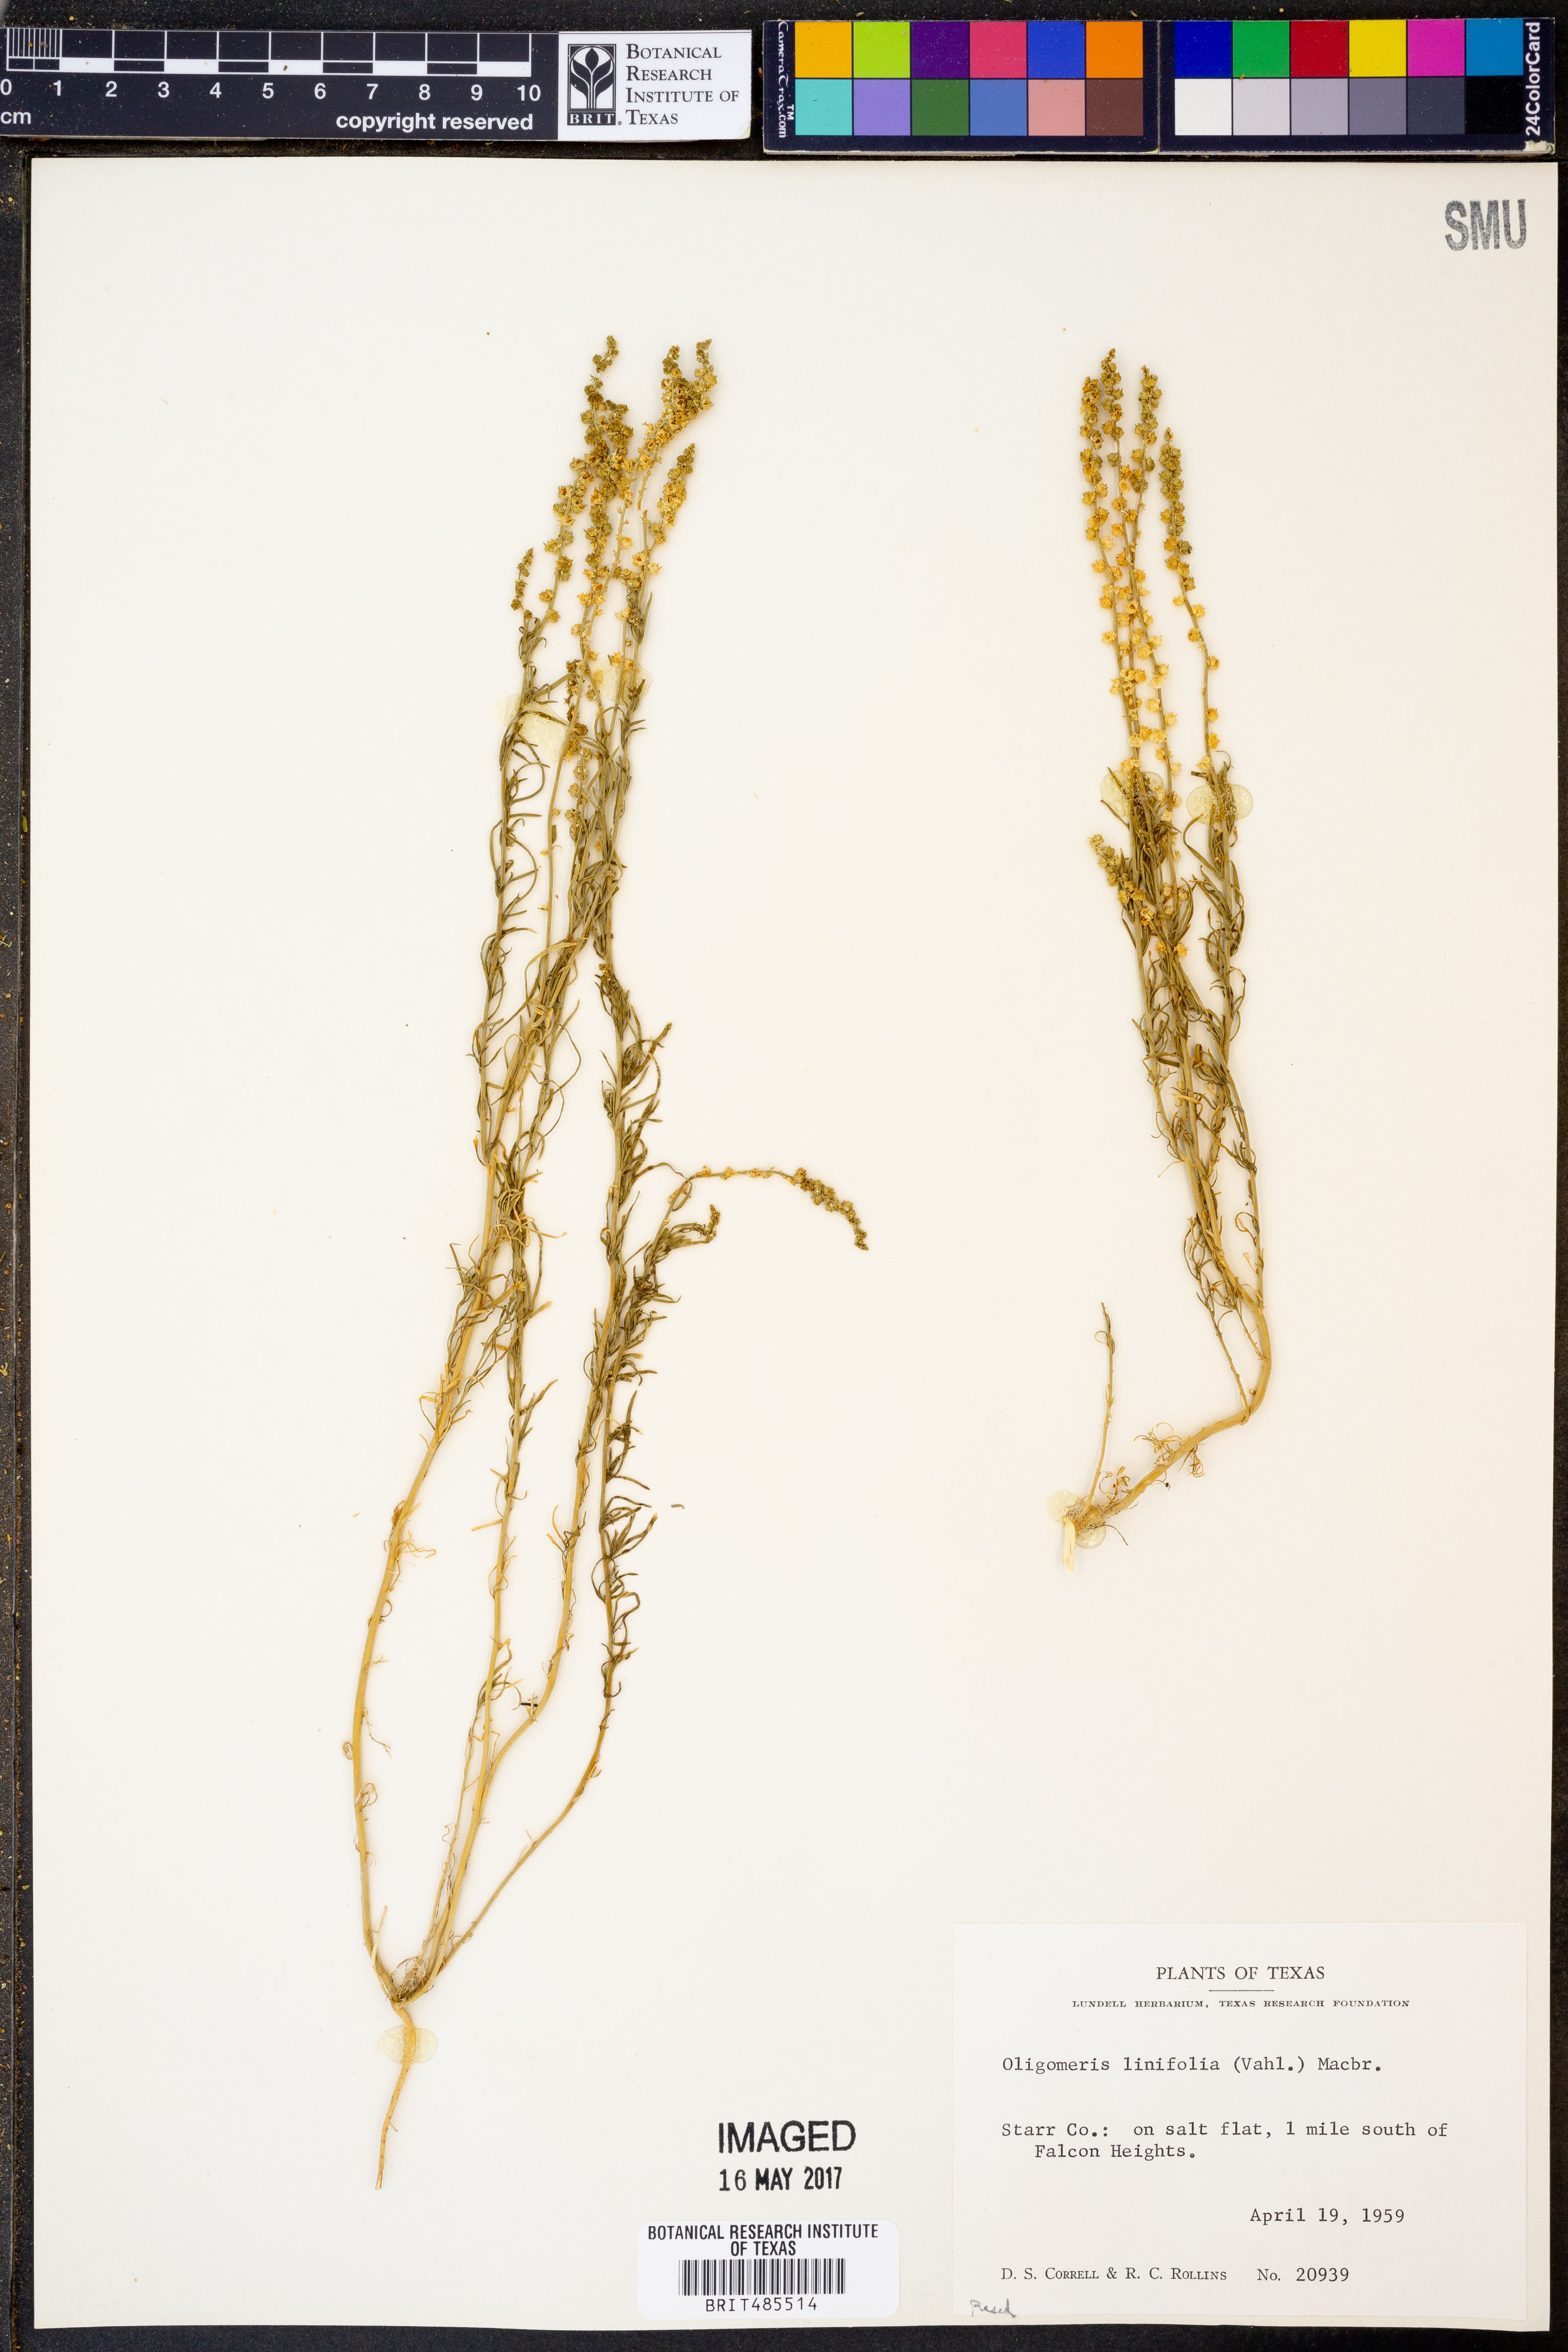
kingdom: Plantae
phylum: Tracheophyta
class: Magnoliopsida
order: Brassicales
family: Resedaceae
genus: Oligomeris
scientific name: Oligomeris linifolia
